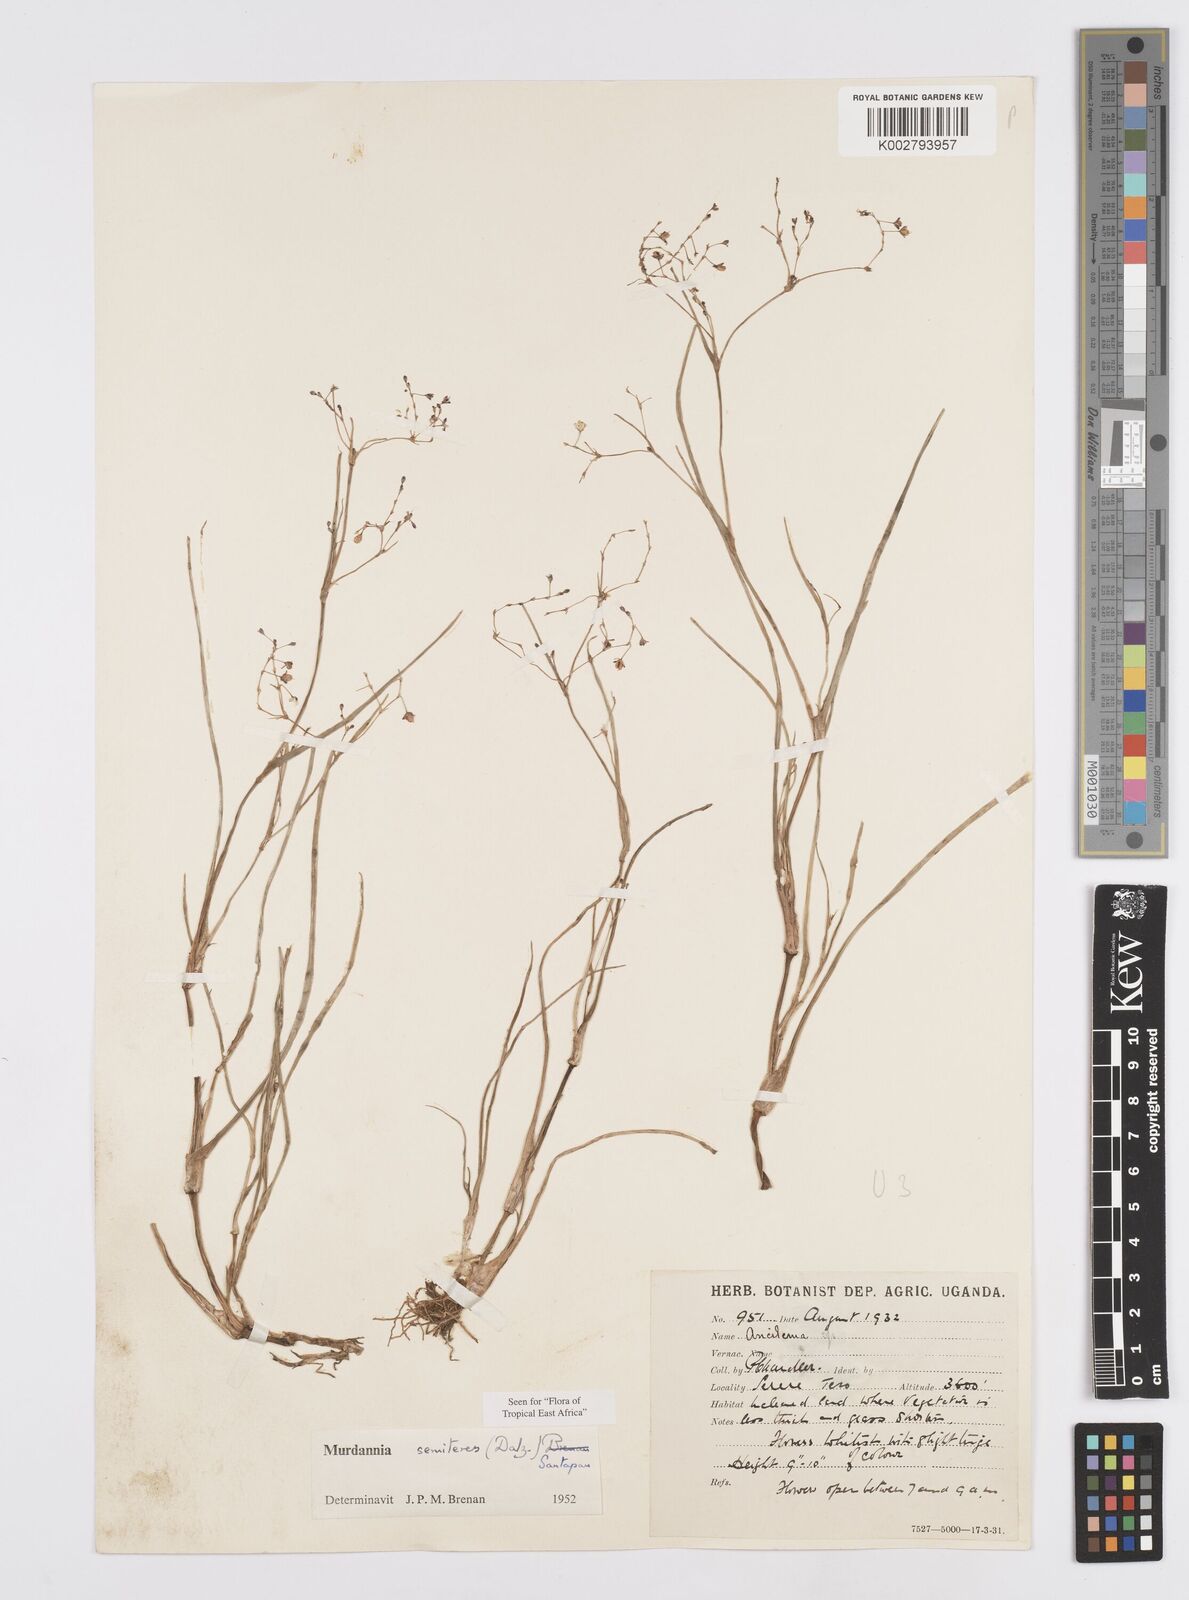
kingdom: Plantae
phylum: Tracheophyta
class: Liliopsida
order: Commelinales
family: Commelinaceae
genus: Murdannia
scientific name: Murdannia semiteres
